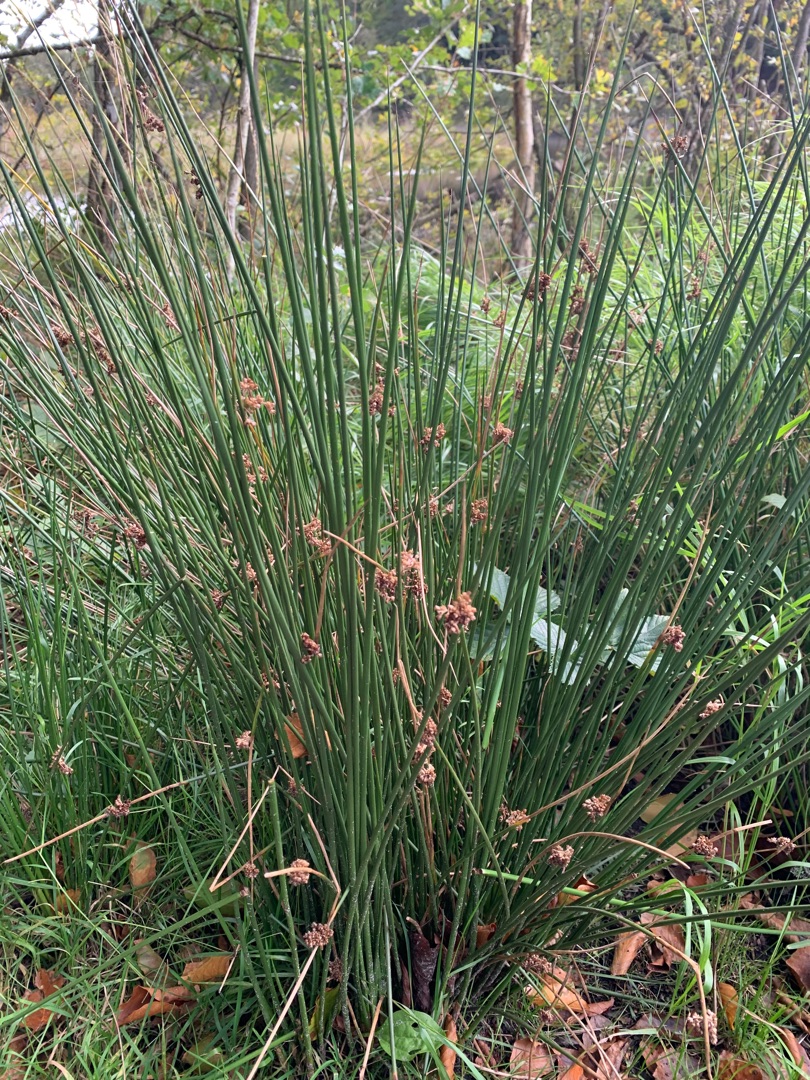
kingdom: Plantae
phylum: Tracheophyta
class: Liliopsida
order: Poales
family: Juncaceae
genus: Juncus
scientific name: Juncus effusus
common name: Lyse-siv
